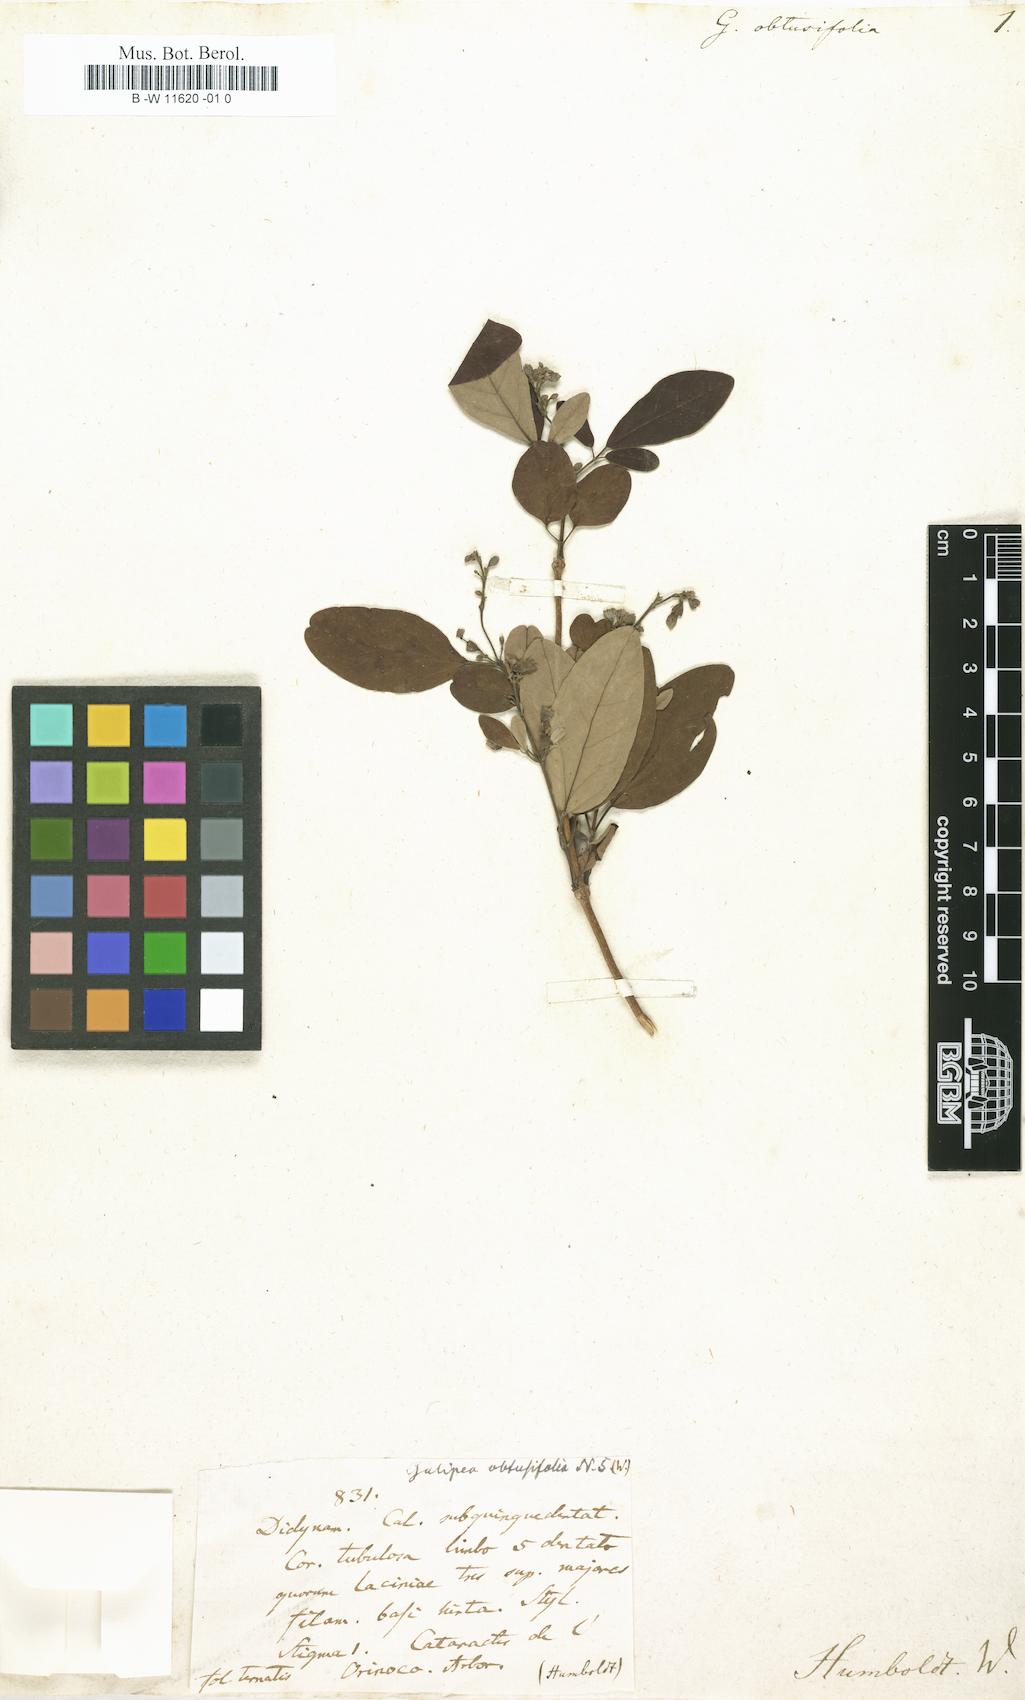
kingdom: Plantae
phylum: Tracheophyta
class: Magnoliopsida
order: Sapindales
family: Rutaceae
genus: Galipea
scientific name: Galipea
